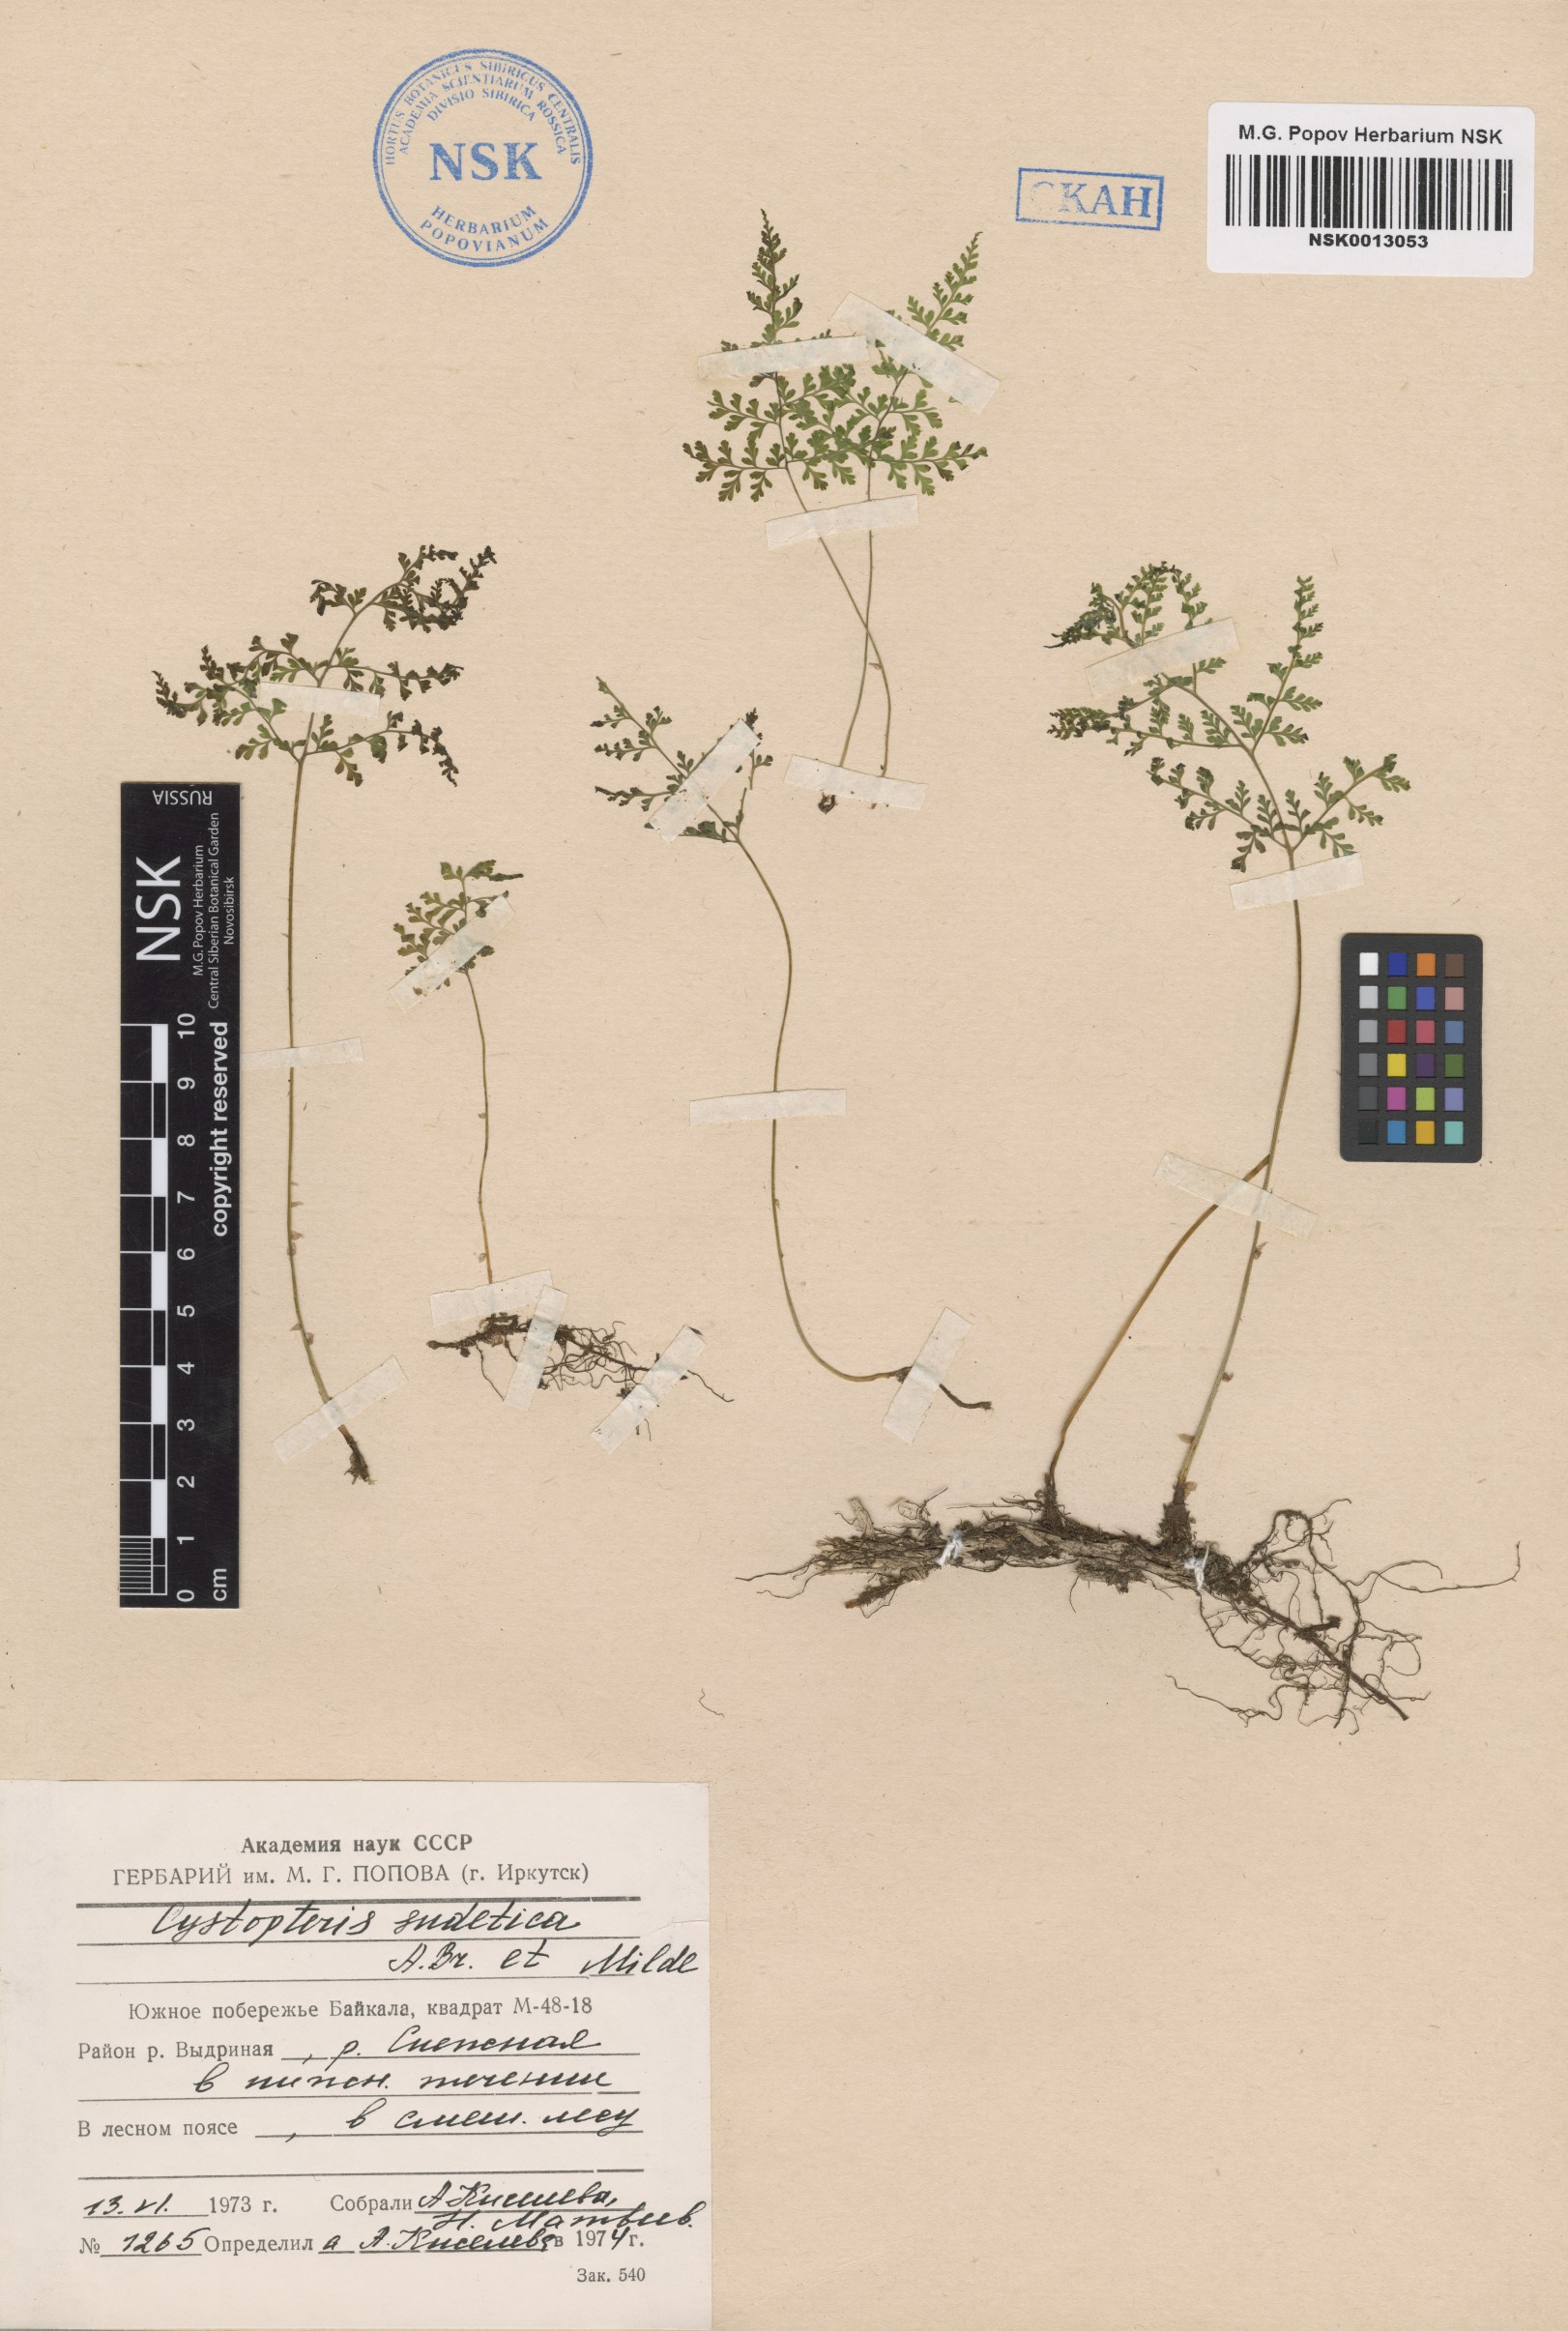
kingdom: Plantae
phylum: Tracheophyta
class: Polypodiopsida
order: Polypodiales
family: Cystopteridaceae
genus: Cystopteris
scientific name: Cystopteris sudetica
